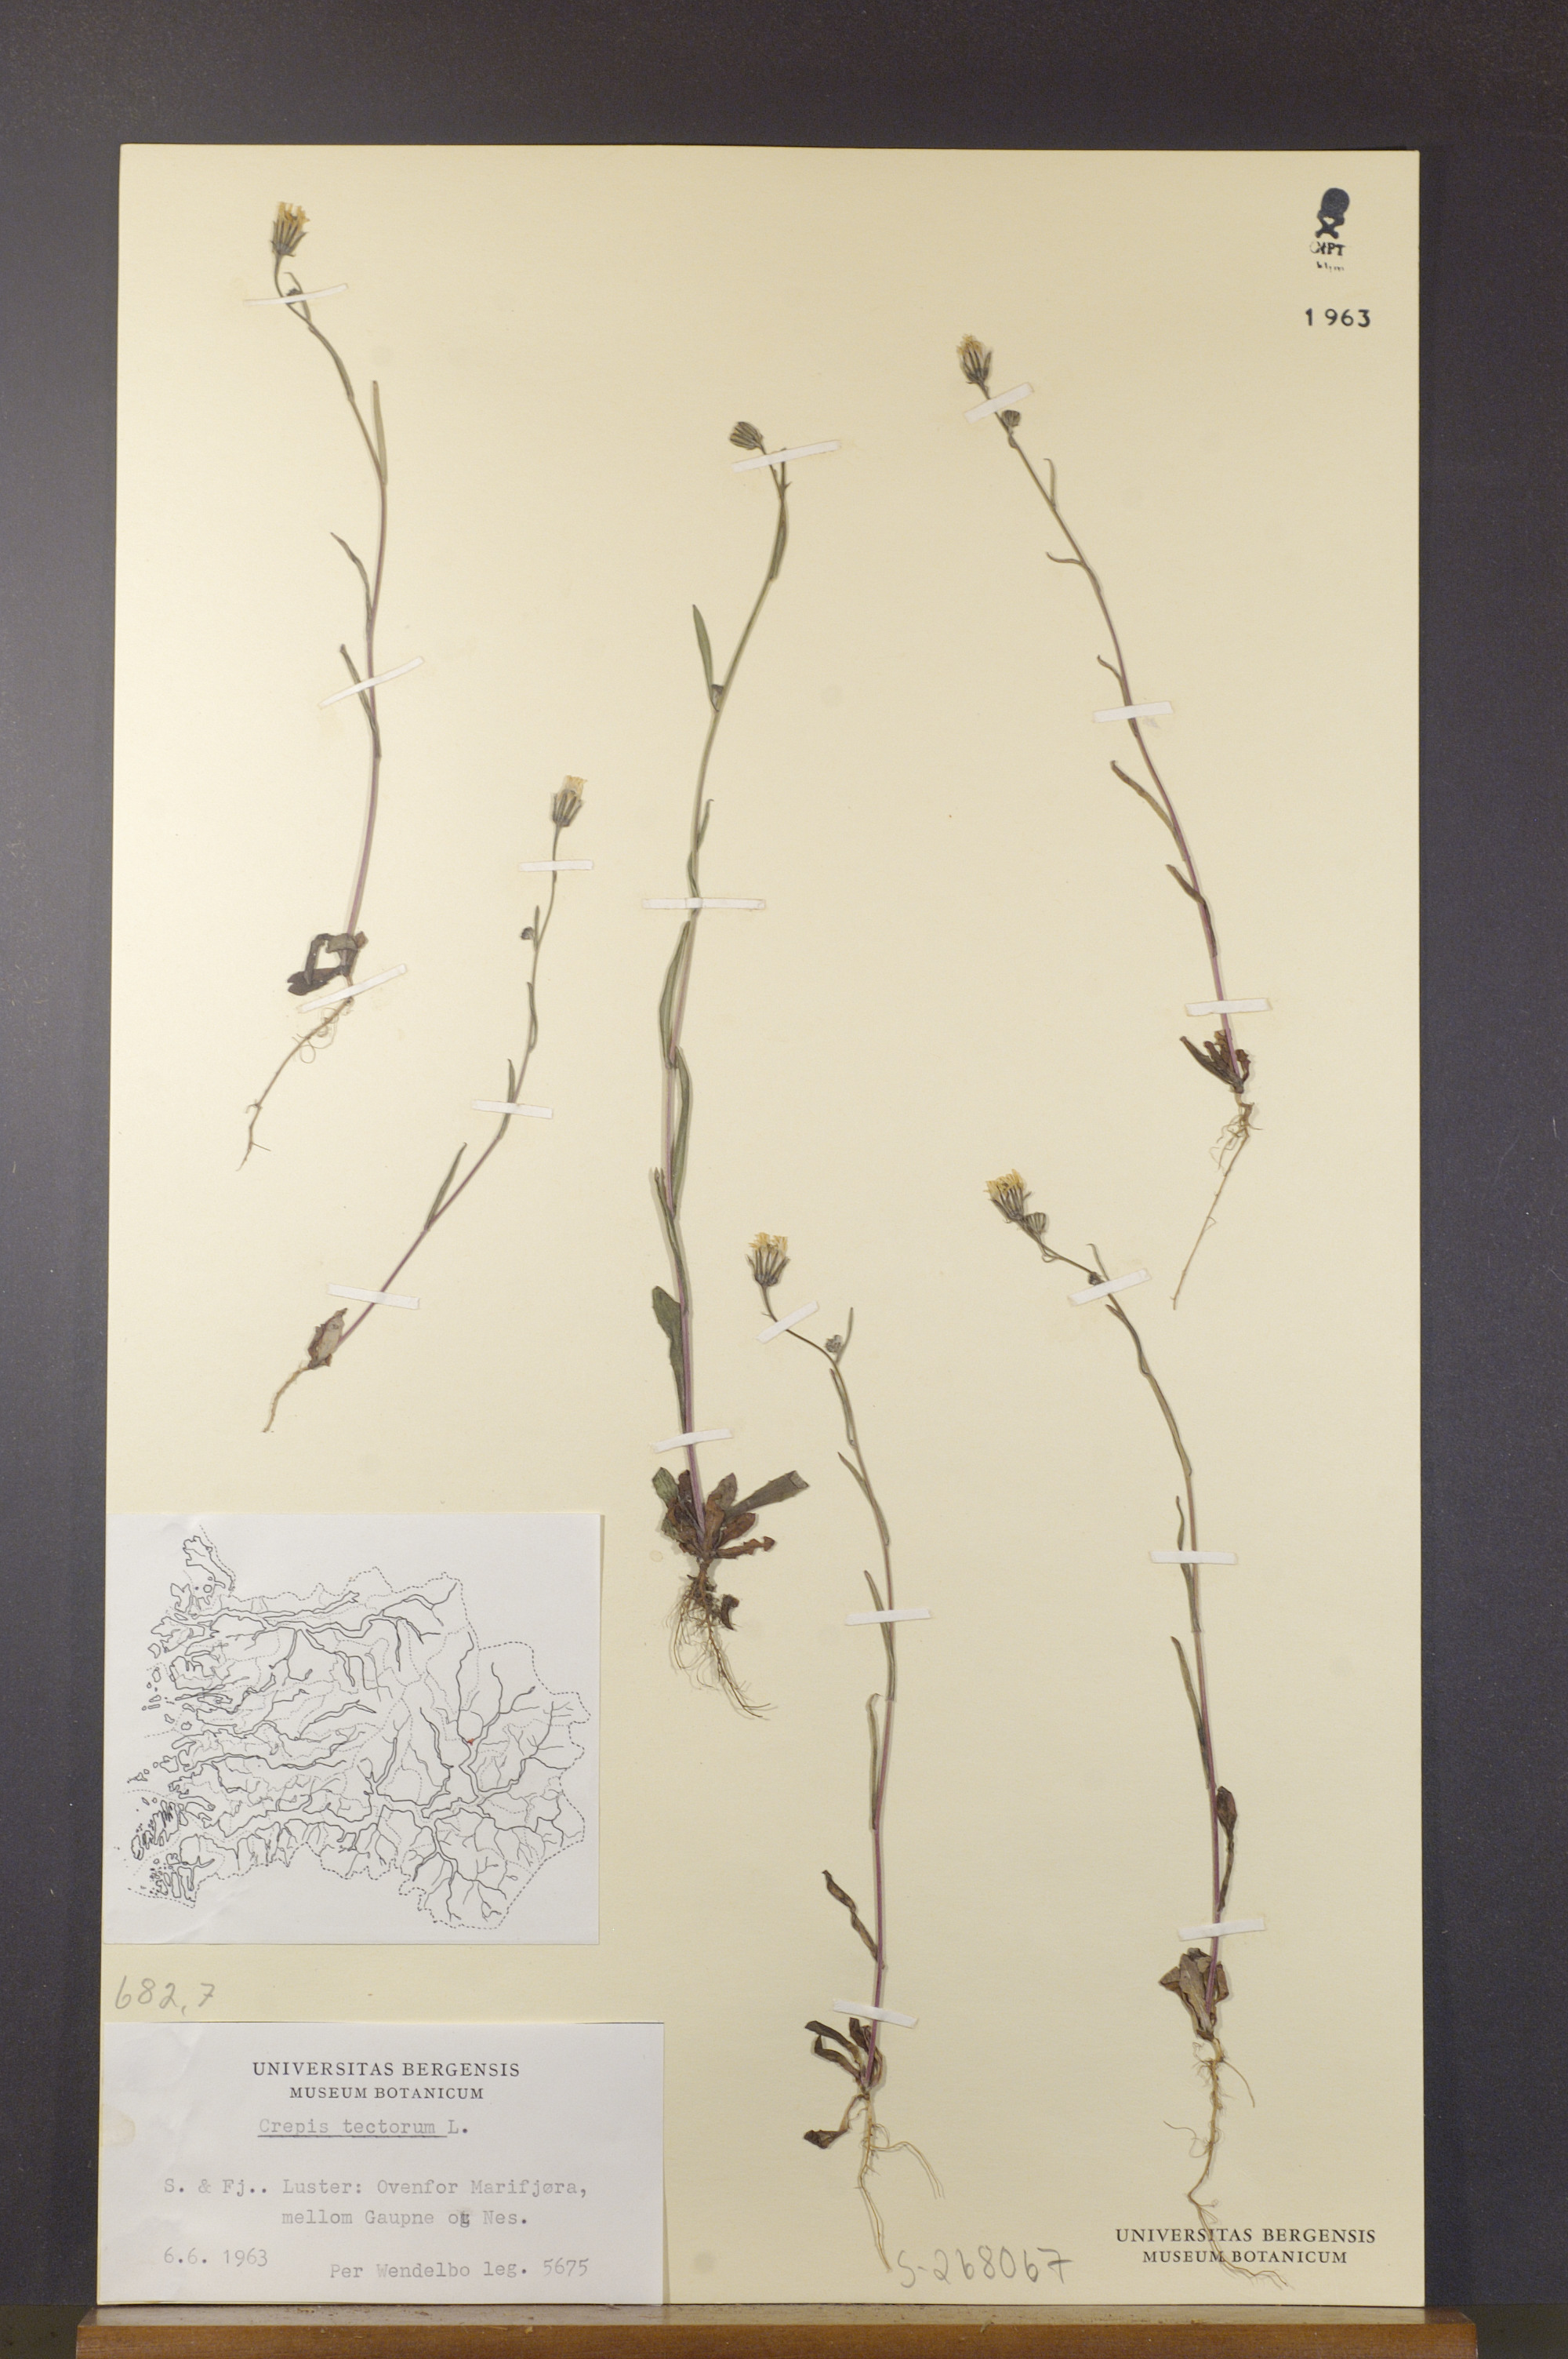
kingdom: Plantae
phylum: Tracheophyta
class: Magnoliopsida
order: Asterales
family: Asteraceae
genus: Crepis
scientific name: Crepis tectorum
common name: Narrow-leaved hawk's-beard
